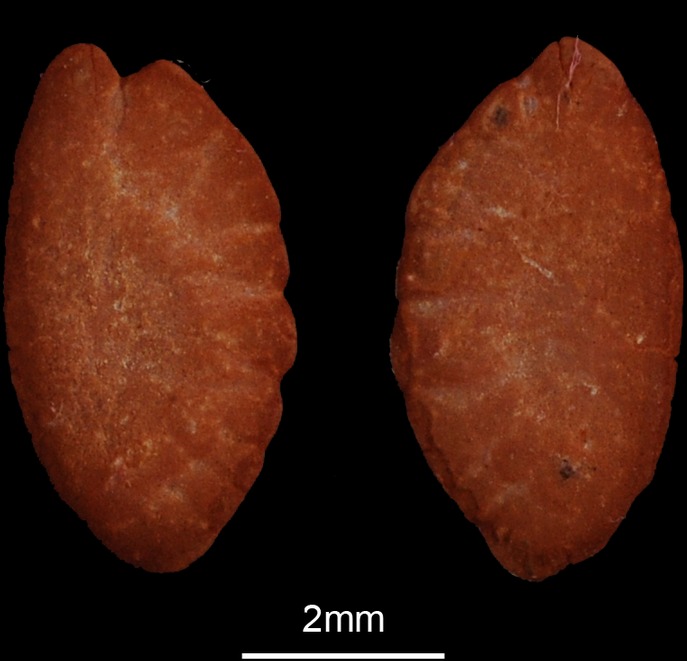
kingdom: Animalia
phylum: Chordata
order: Perciformes
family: Uranoscopidae
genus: Uranoscopus
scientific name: Uranoscopus scaber
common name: Stargazer
